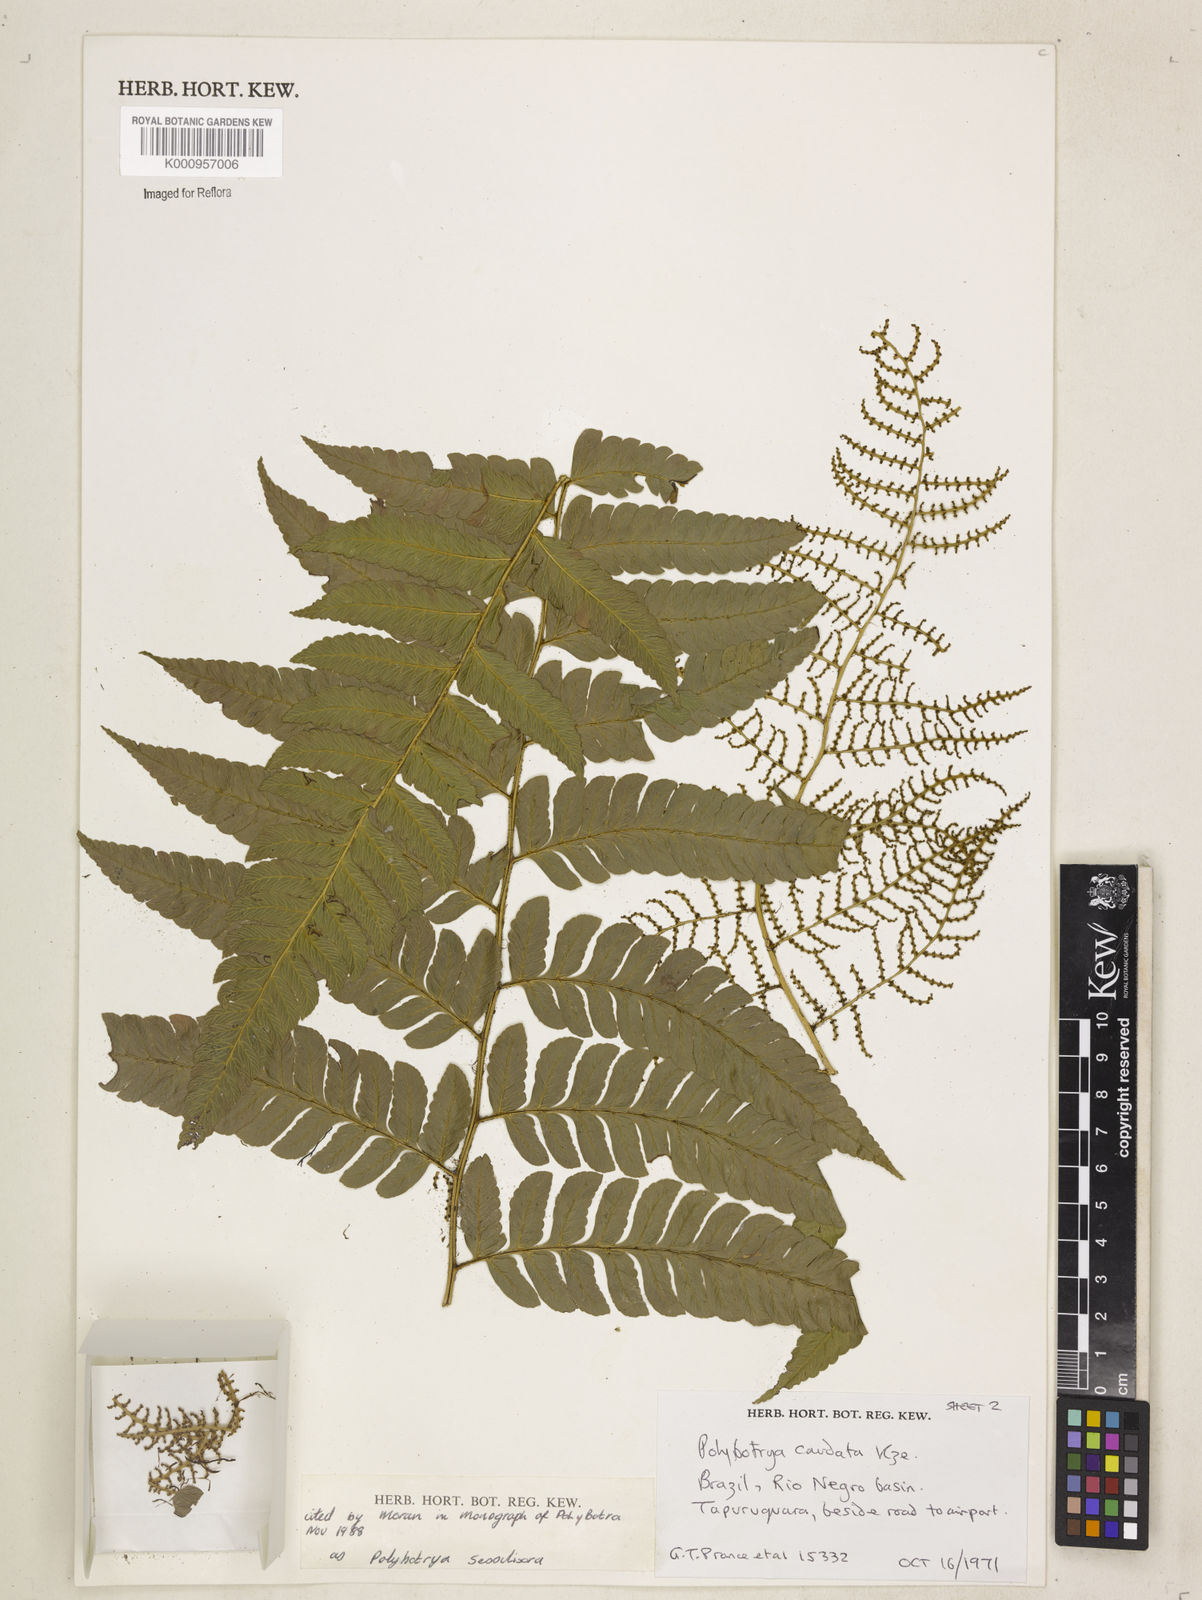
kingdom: Plantae
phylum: Tracheophyta
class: Polypodiopsida
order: Polypodiales
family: Dryopteridaceae
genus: Polybotrya
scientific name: Polybotrya sessilisora
